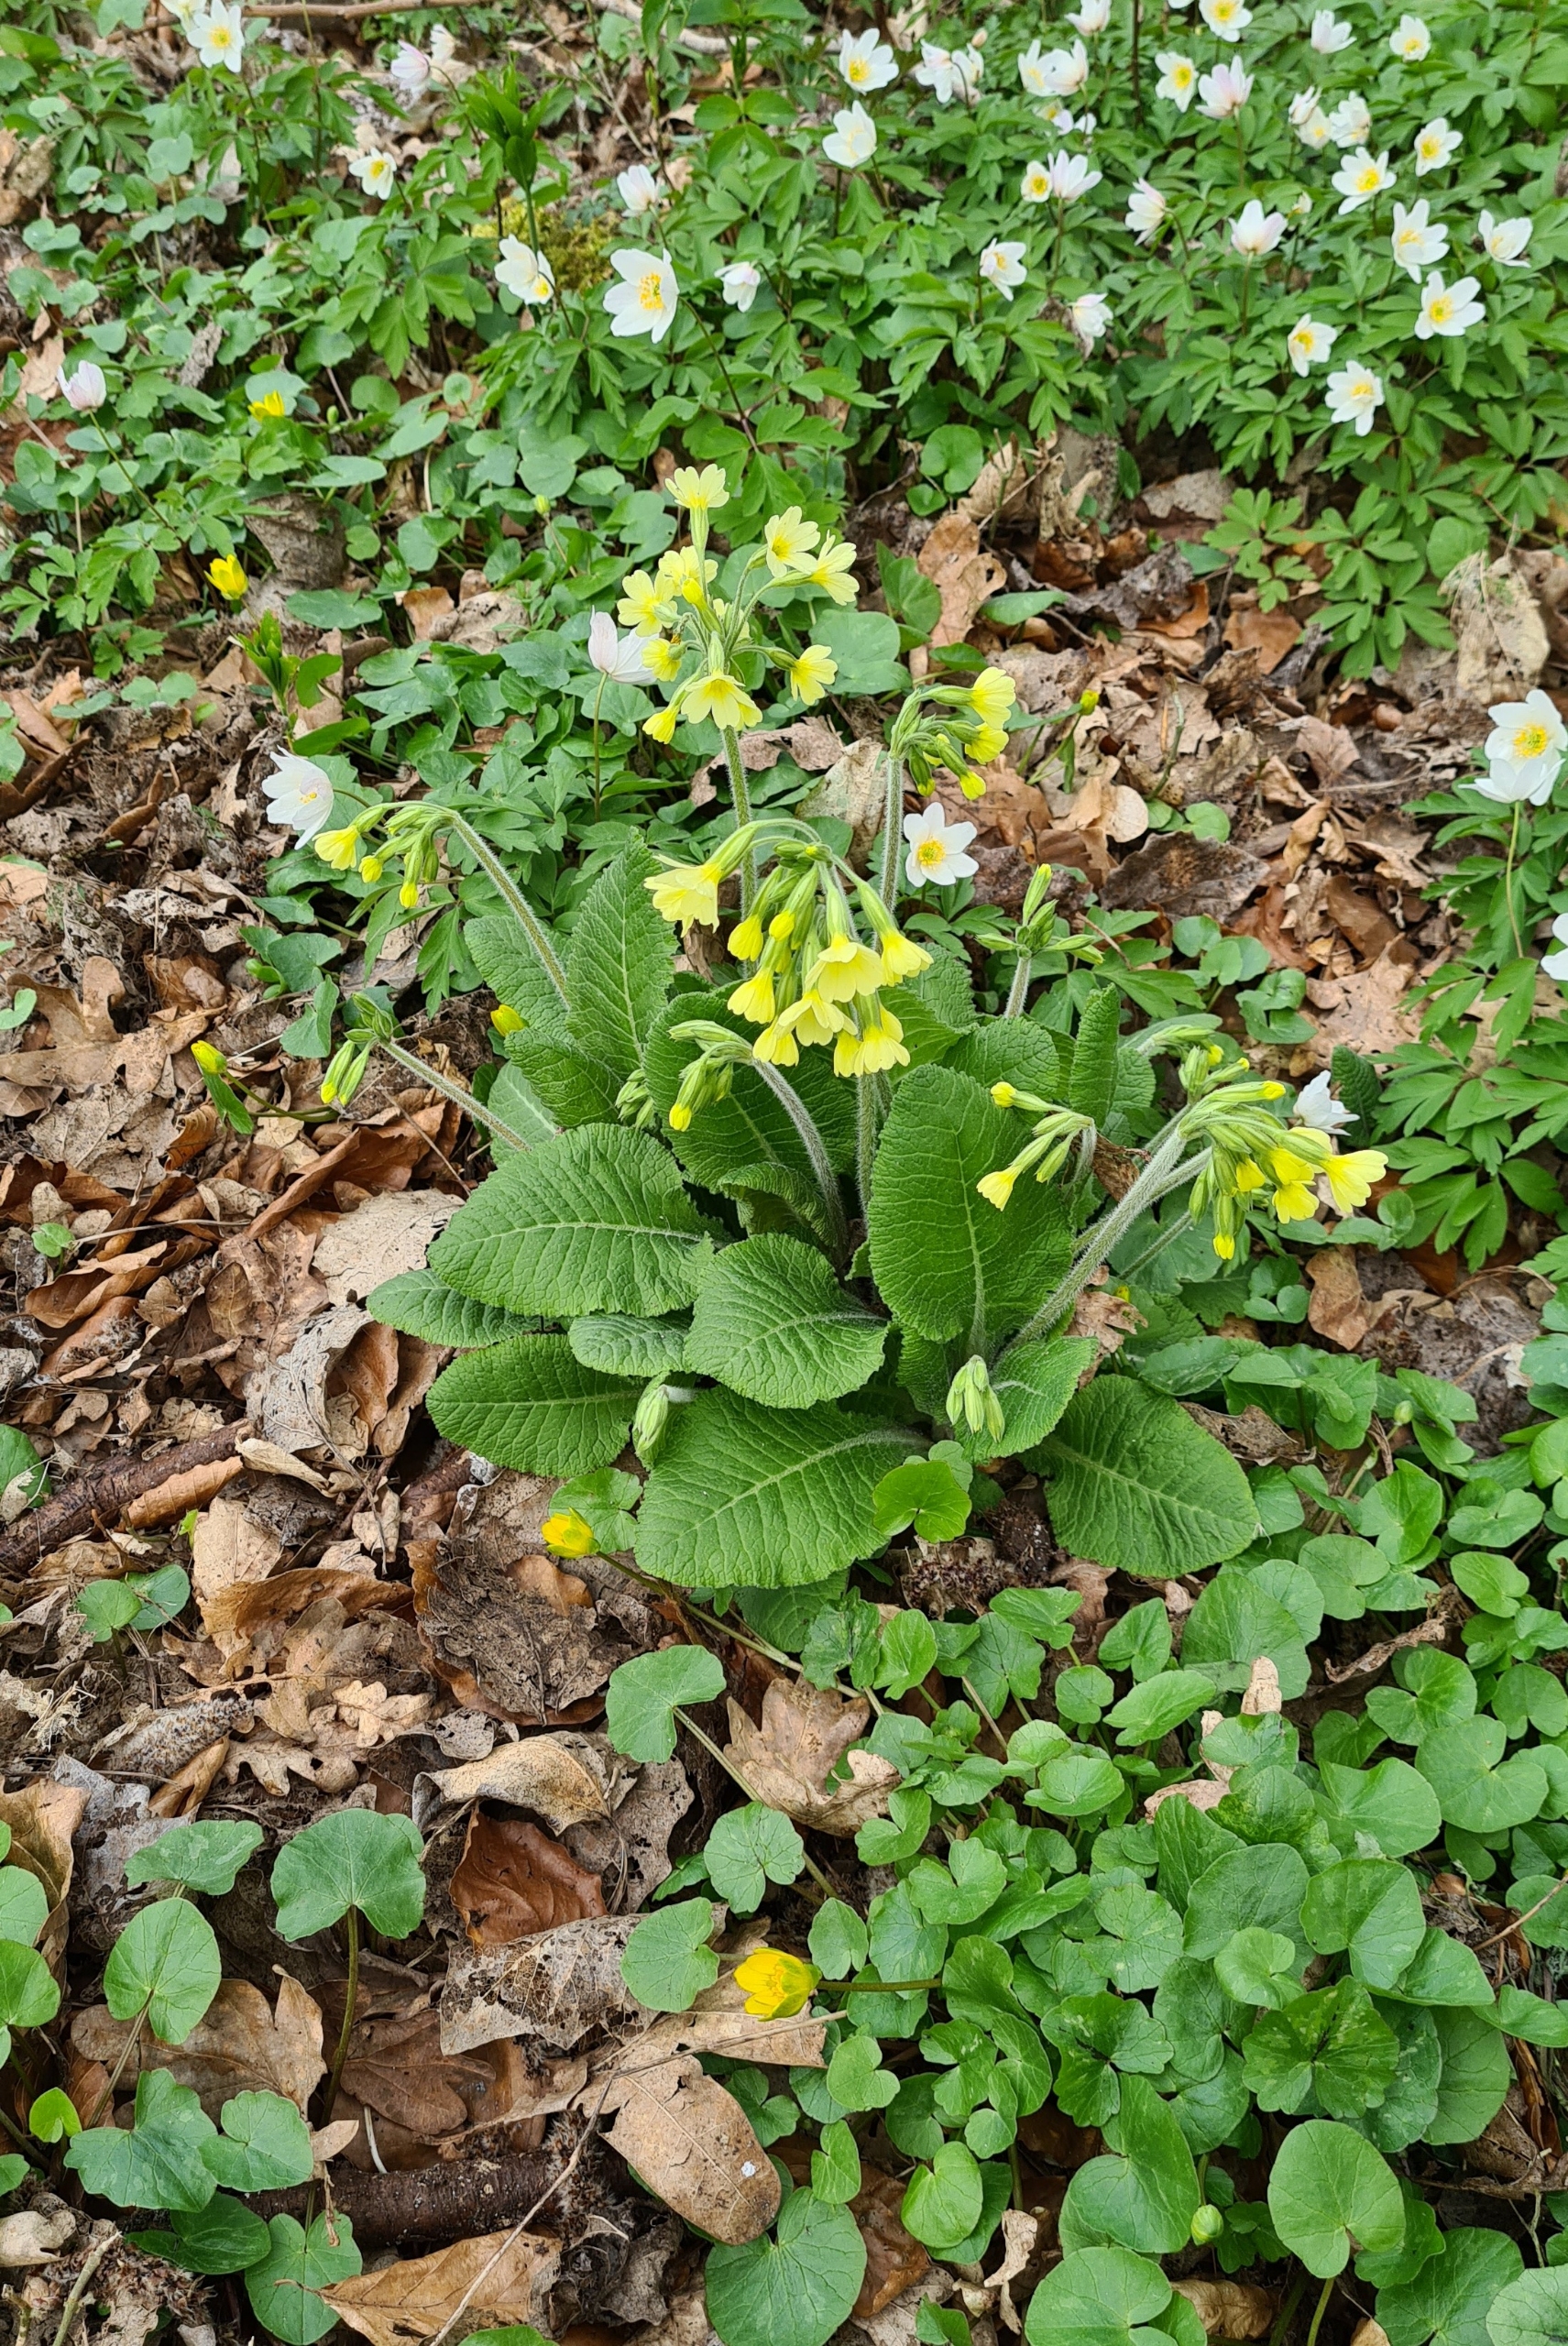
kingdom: Plantae
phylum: Tracheophyta
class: Magnoliopsida
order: Ericales
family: Primulaceae
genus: Primula
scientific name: Primula veris
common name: Hulkravet kodriver
